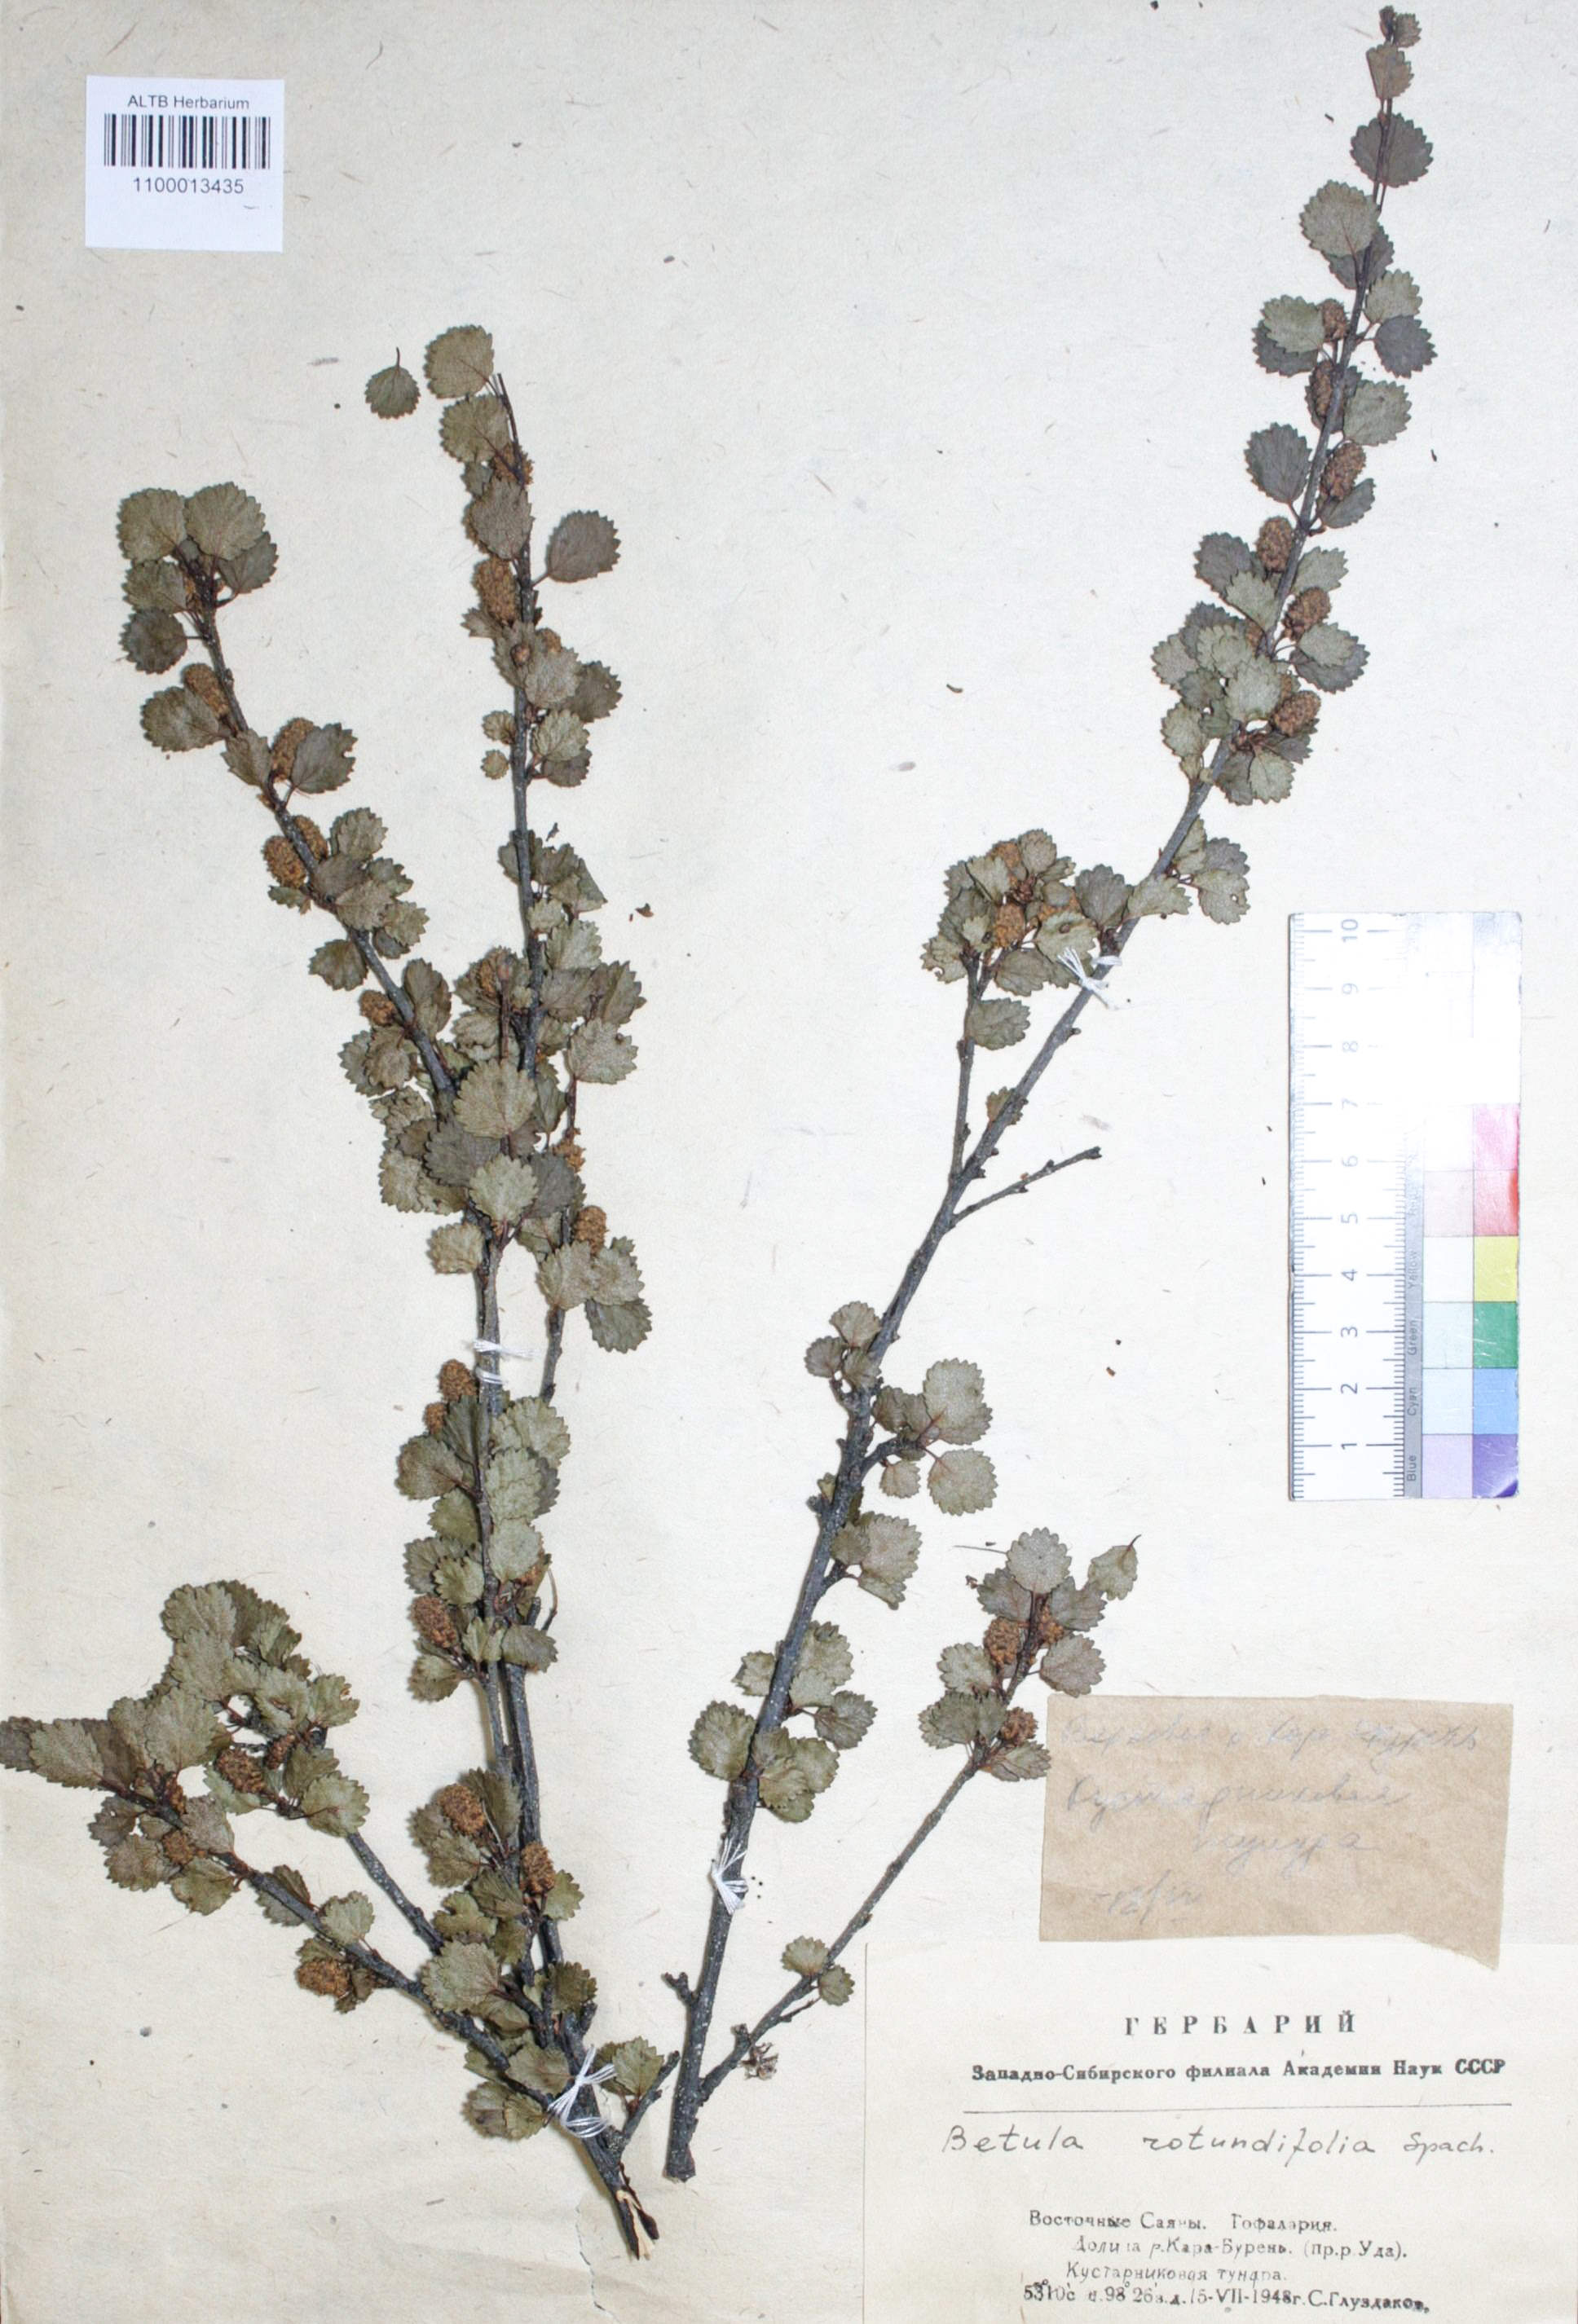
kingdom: Plantae
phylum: Tracheophyta
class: Magnoliopsida
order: Fagales
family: Betulaceae
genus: Betula
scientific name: Betula glandulosa
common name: Dwarf birch
